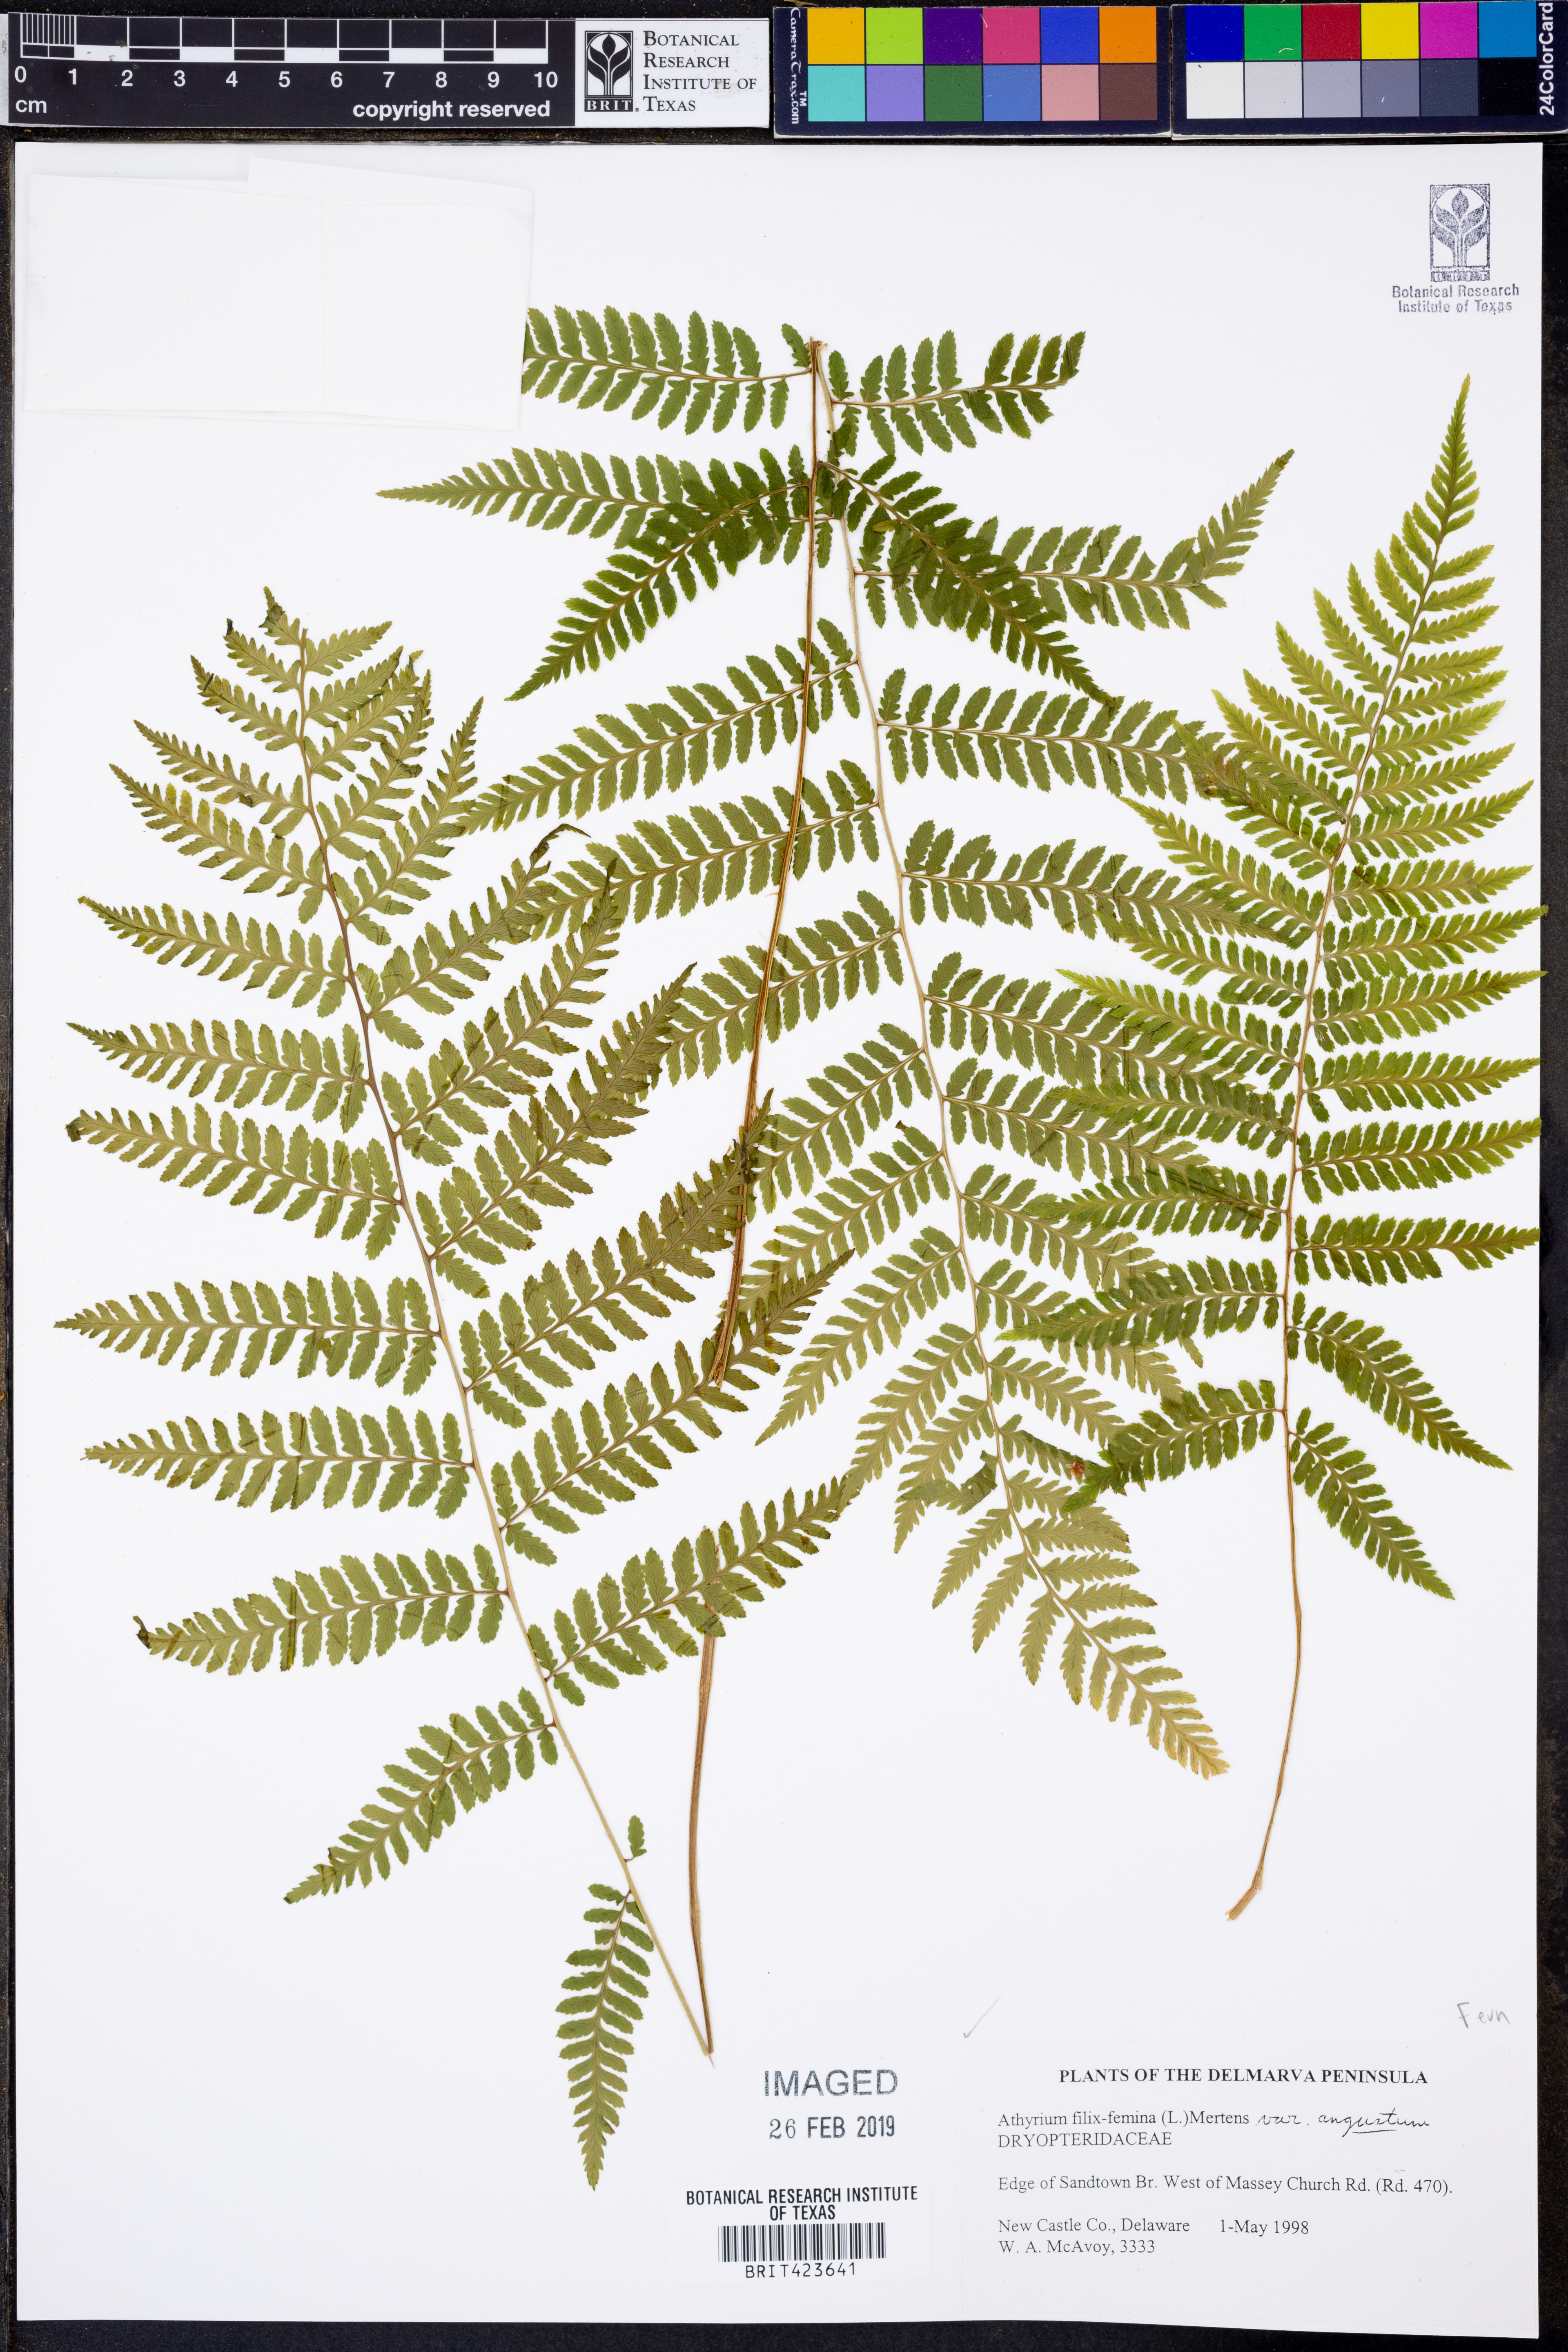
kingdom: Plantae
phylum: Tracheophyta
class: Polypodiopsida
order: Polypodiales
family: Athyriaceae
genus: Athyrium
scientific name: Athyrium angustum
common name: Northern lady fern
